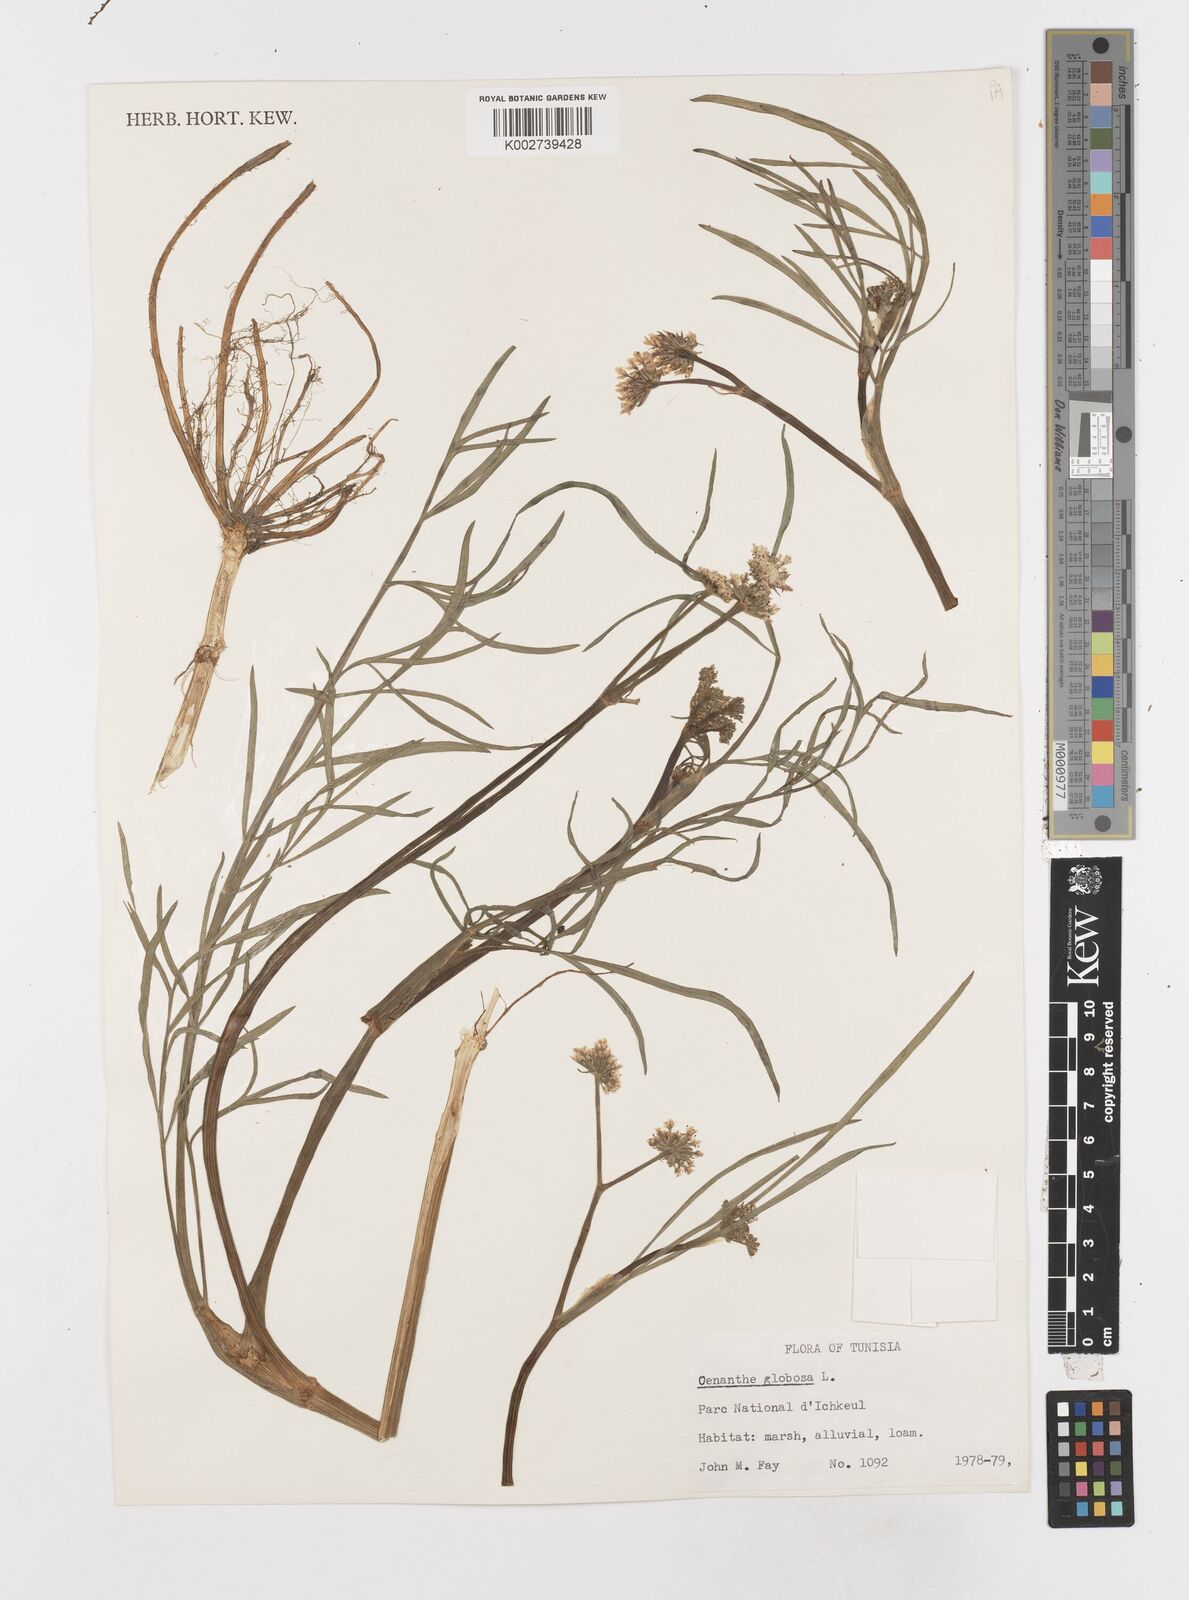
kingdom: Plantae
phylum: Tracheophyta
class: Magnoliopsida
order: Apiales
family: Apiaceae
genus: Oenanthe
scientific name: Oenanthe globulosa
